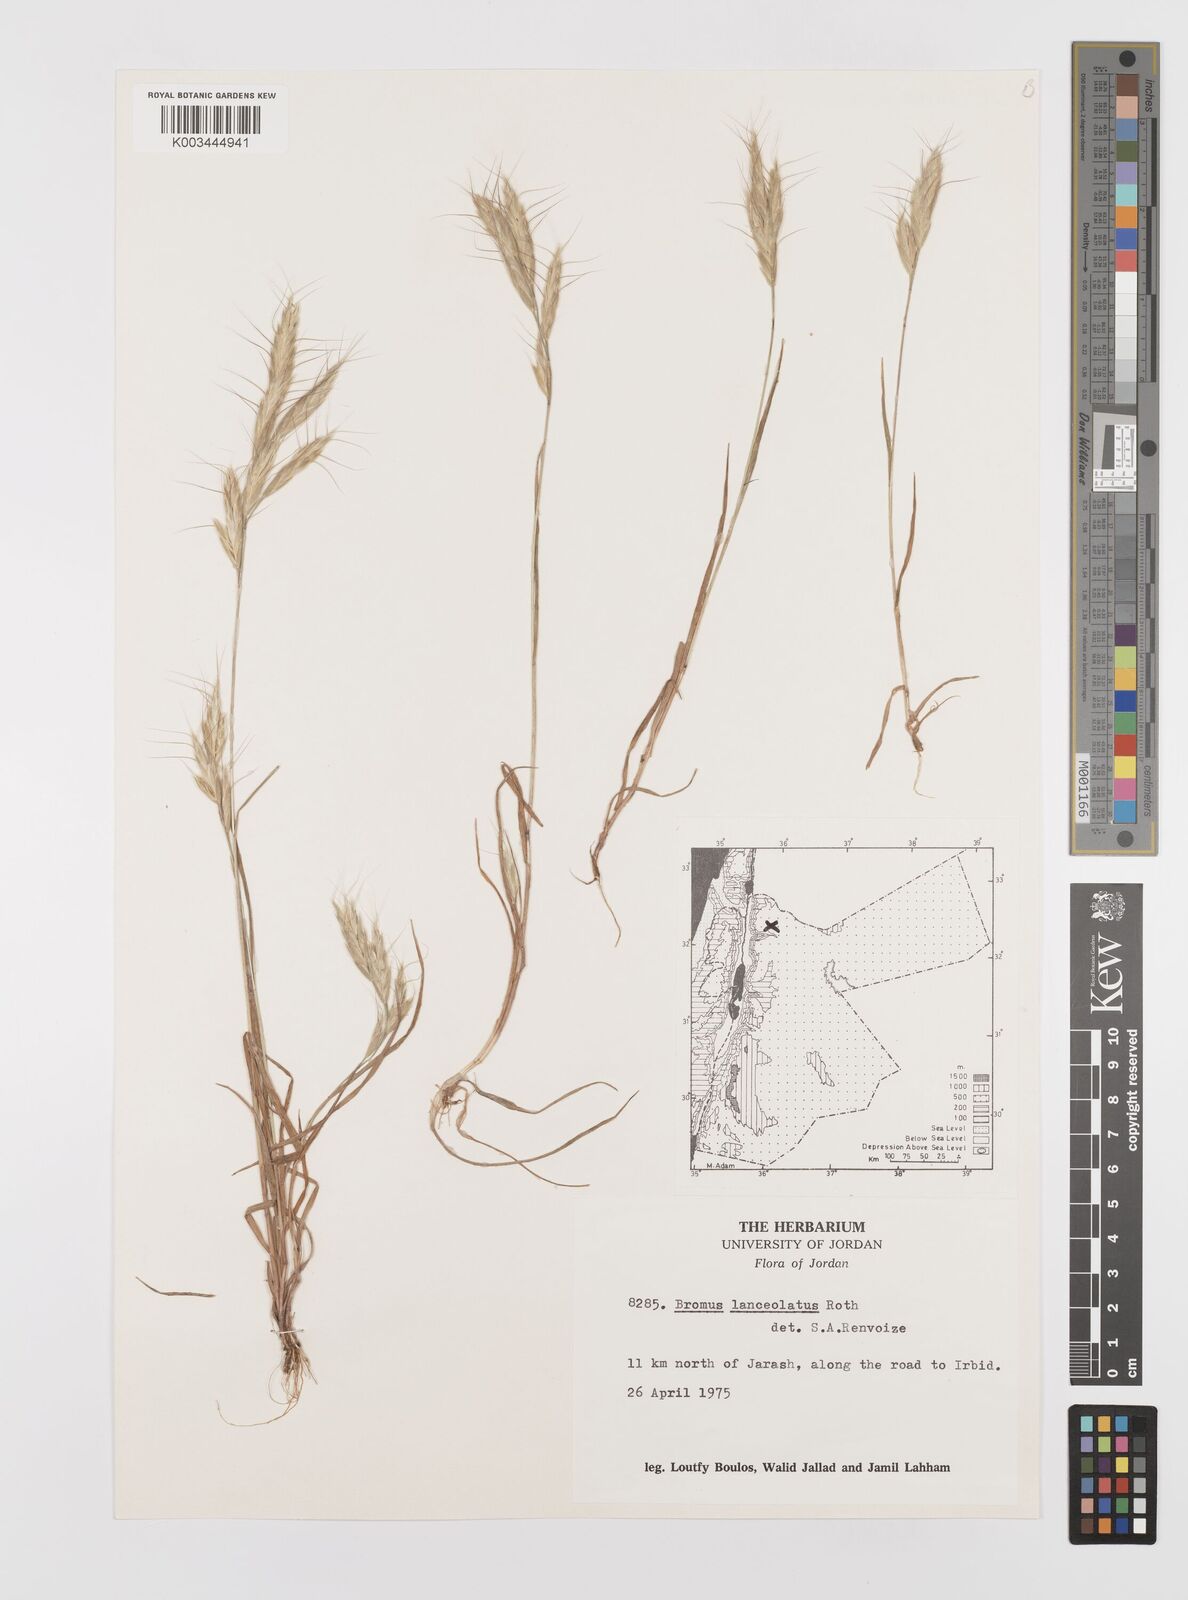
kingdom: Plantae
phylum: Tracheophyta
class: Liliopsida
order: Poales
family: Poaceae
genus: Bromus
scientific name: Bromus lanceolatus
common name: Mediterranean brome
